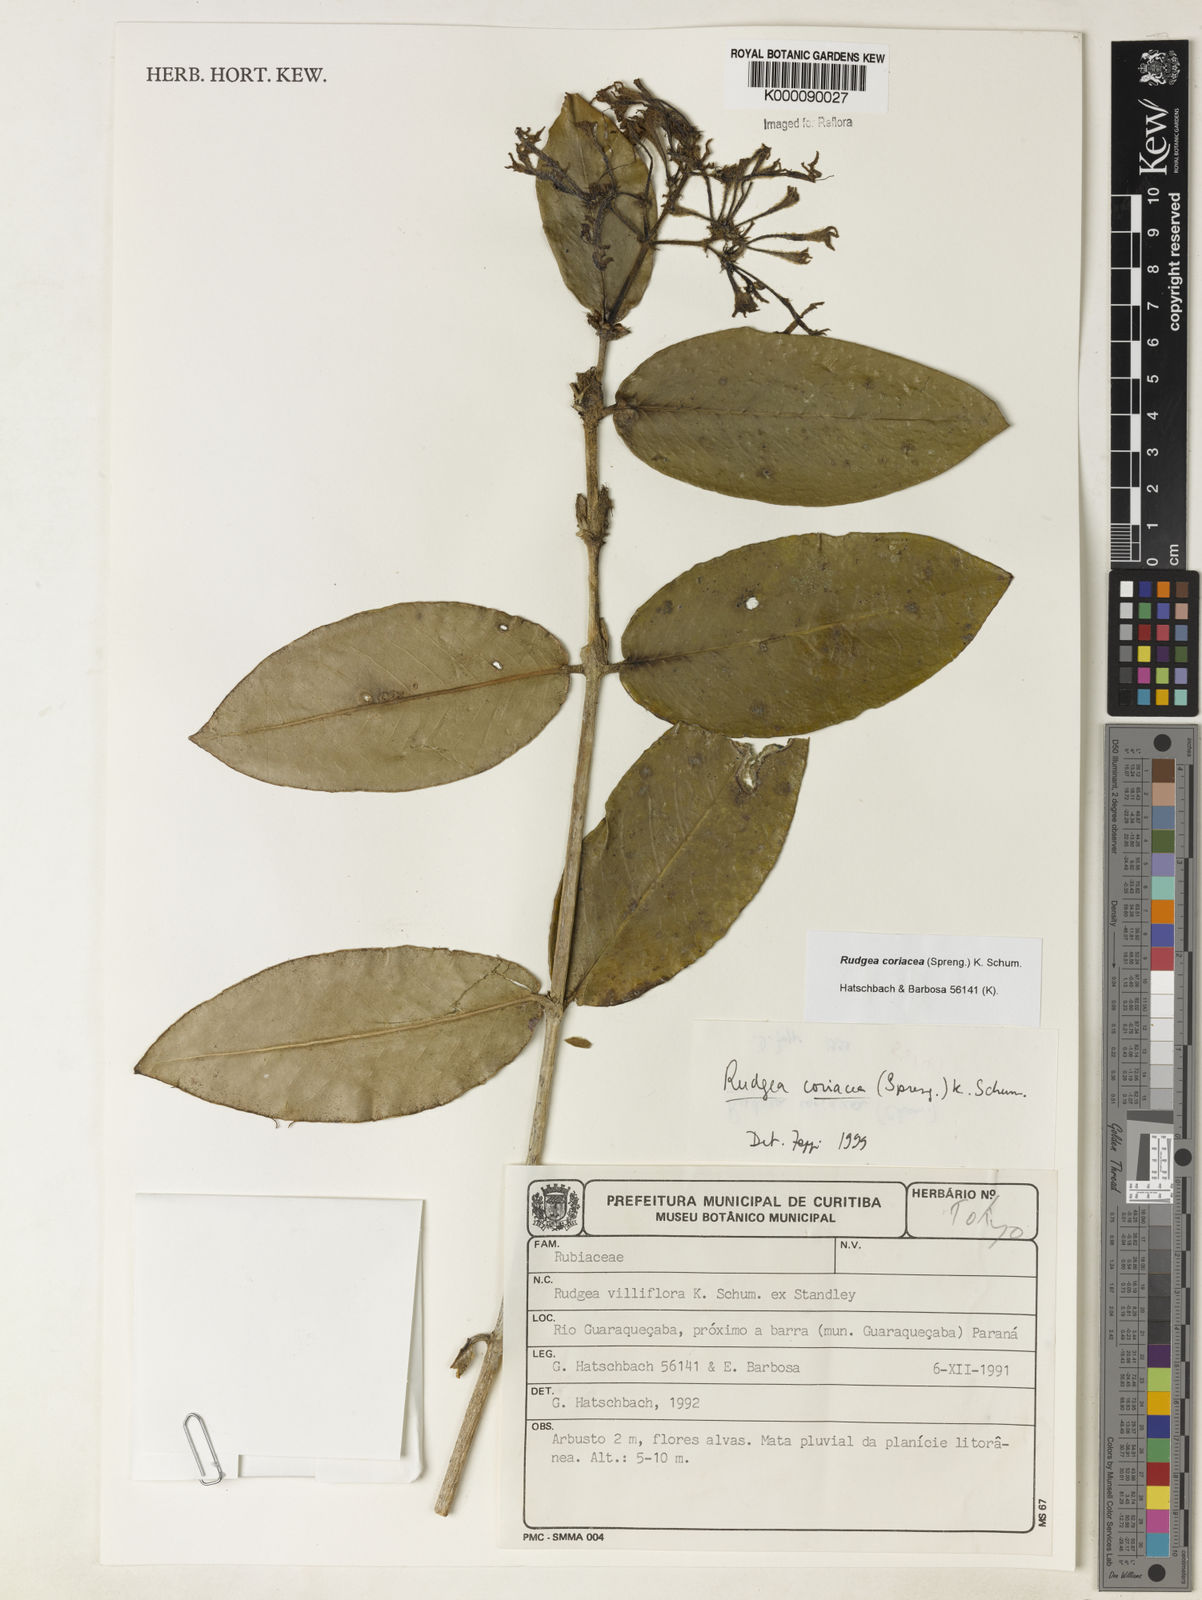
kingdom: Plantae
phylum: Tracheophyta
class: Magnoliopsida
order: Gentianales
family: Rubiaceae
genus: Rudgea
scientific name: Rudgea coriacea
